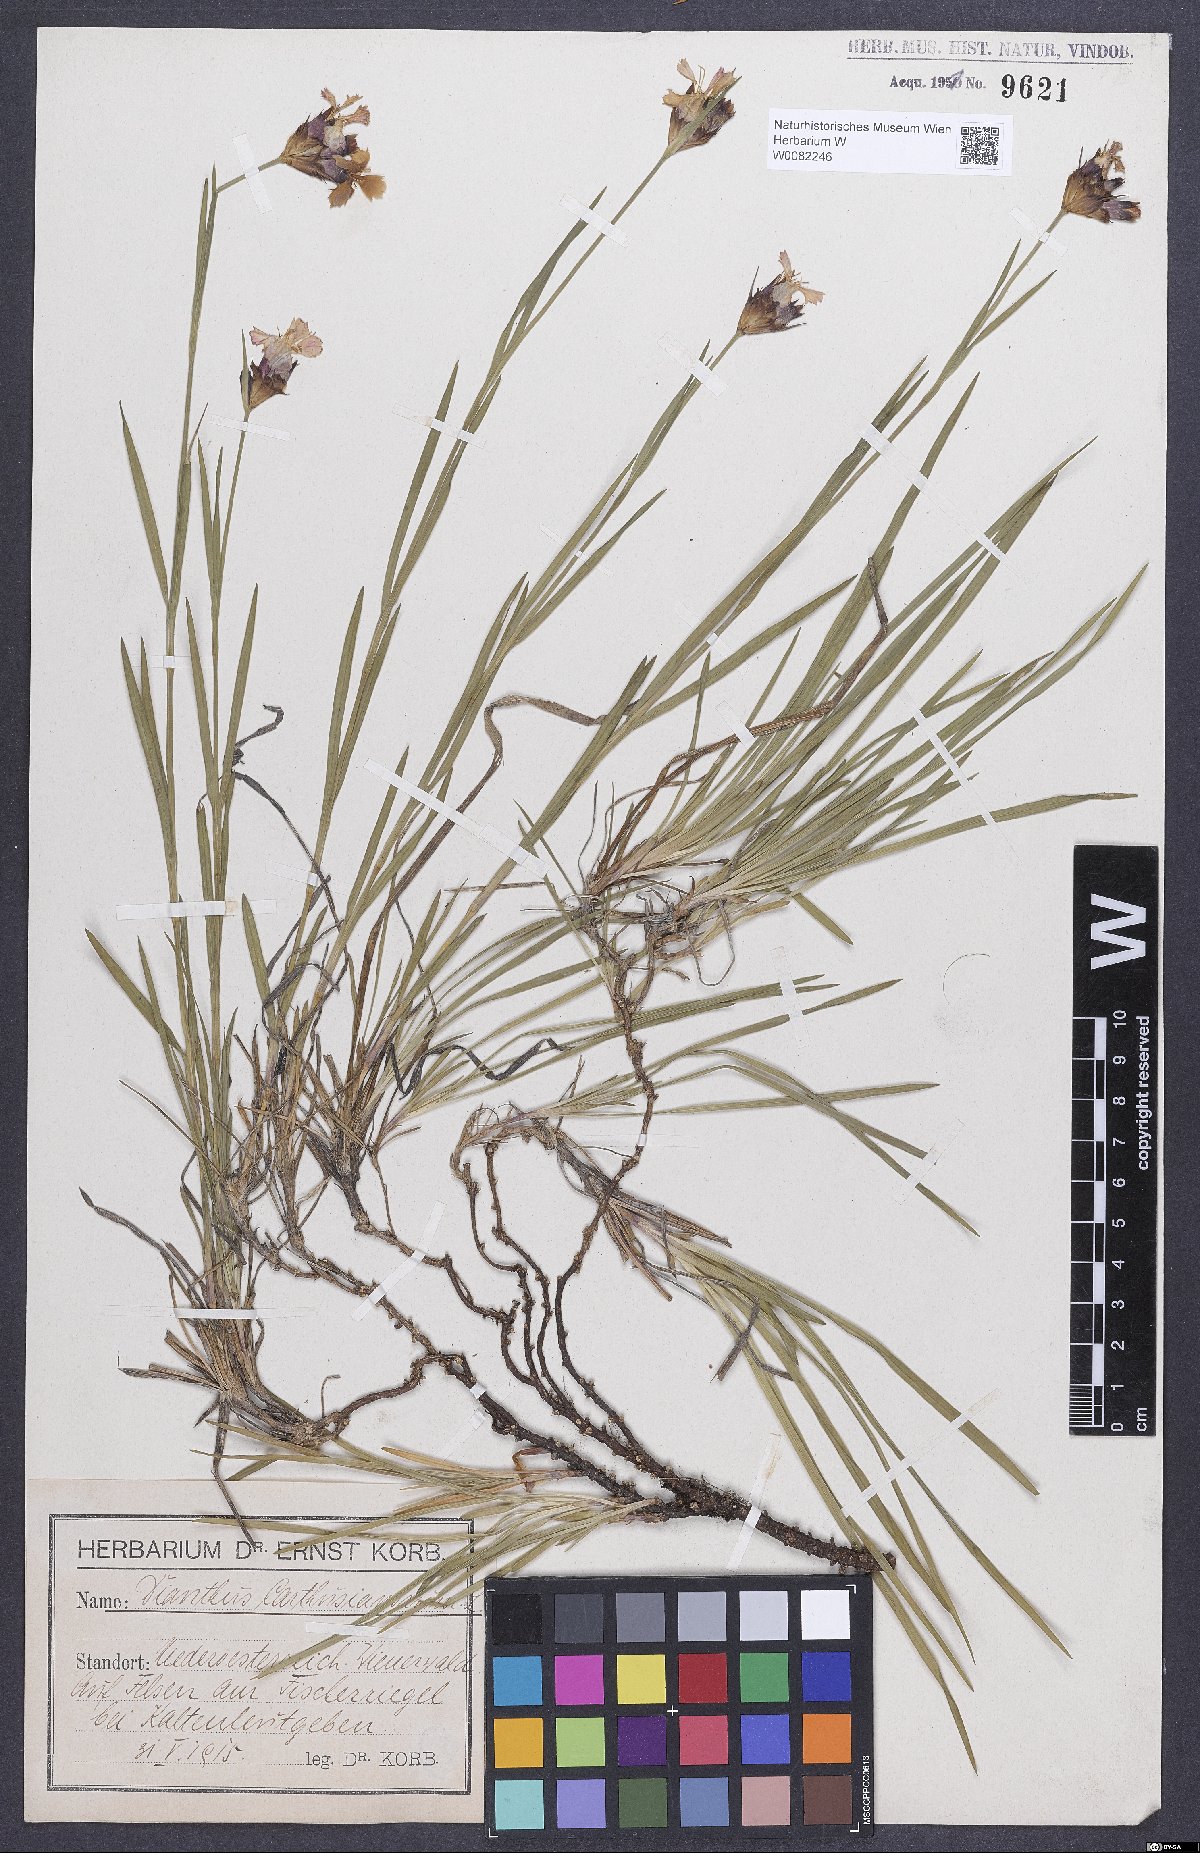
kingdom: Plantae
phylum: Tracheophyta
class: Magnoliopsida
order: Caryophyllales
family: Caryophyllaceae
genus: Dianthus
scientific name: Dianthus carthusianorum
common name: Carthusian pink
